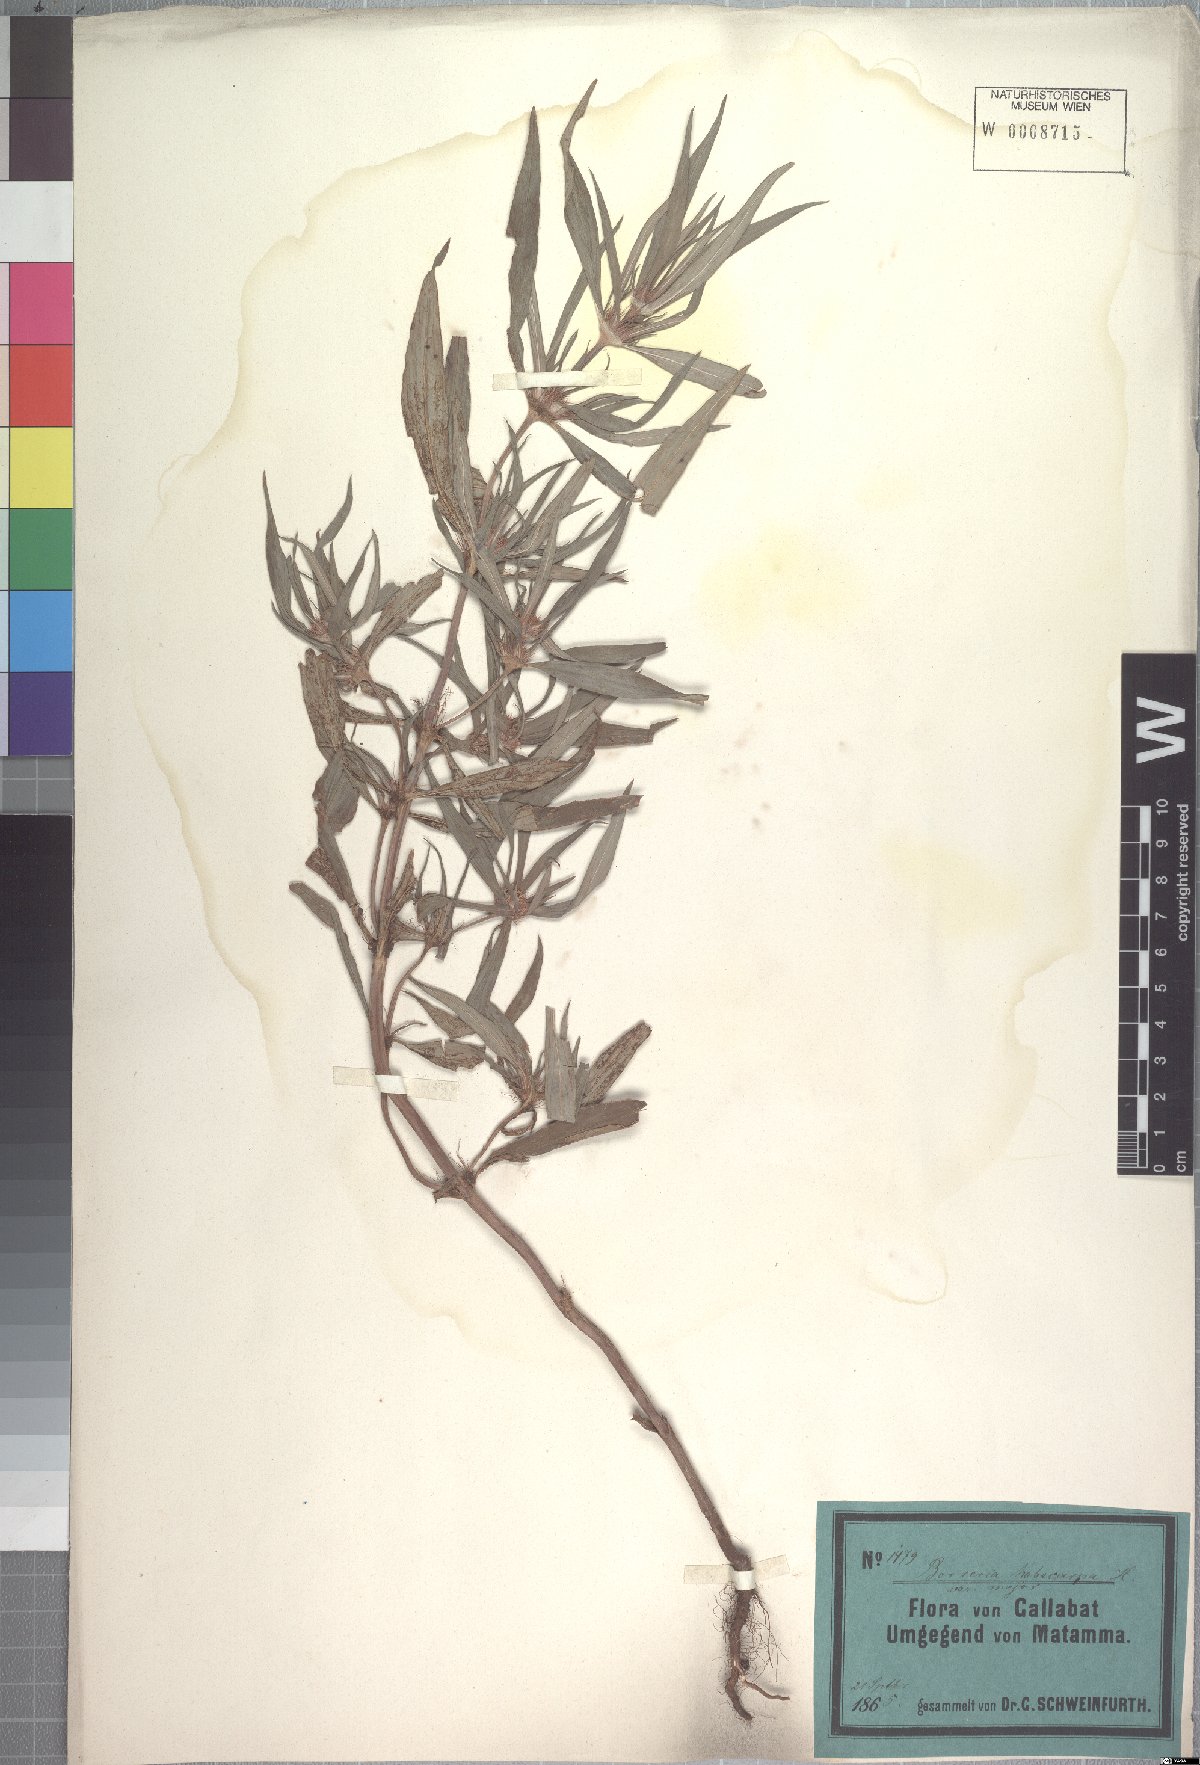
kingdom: Plantae
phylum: Tracheophyta
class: Magnoliopsida
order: Gentianales
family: Rubiaceae
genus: Spermacoce
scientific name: Spermacoce chaetocephala
